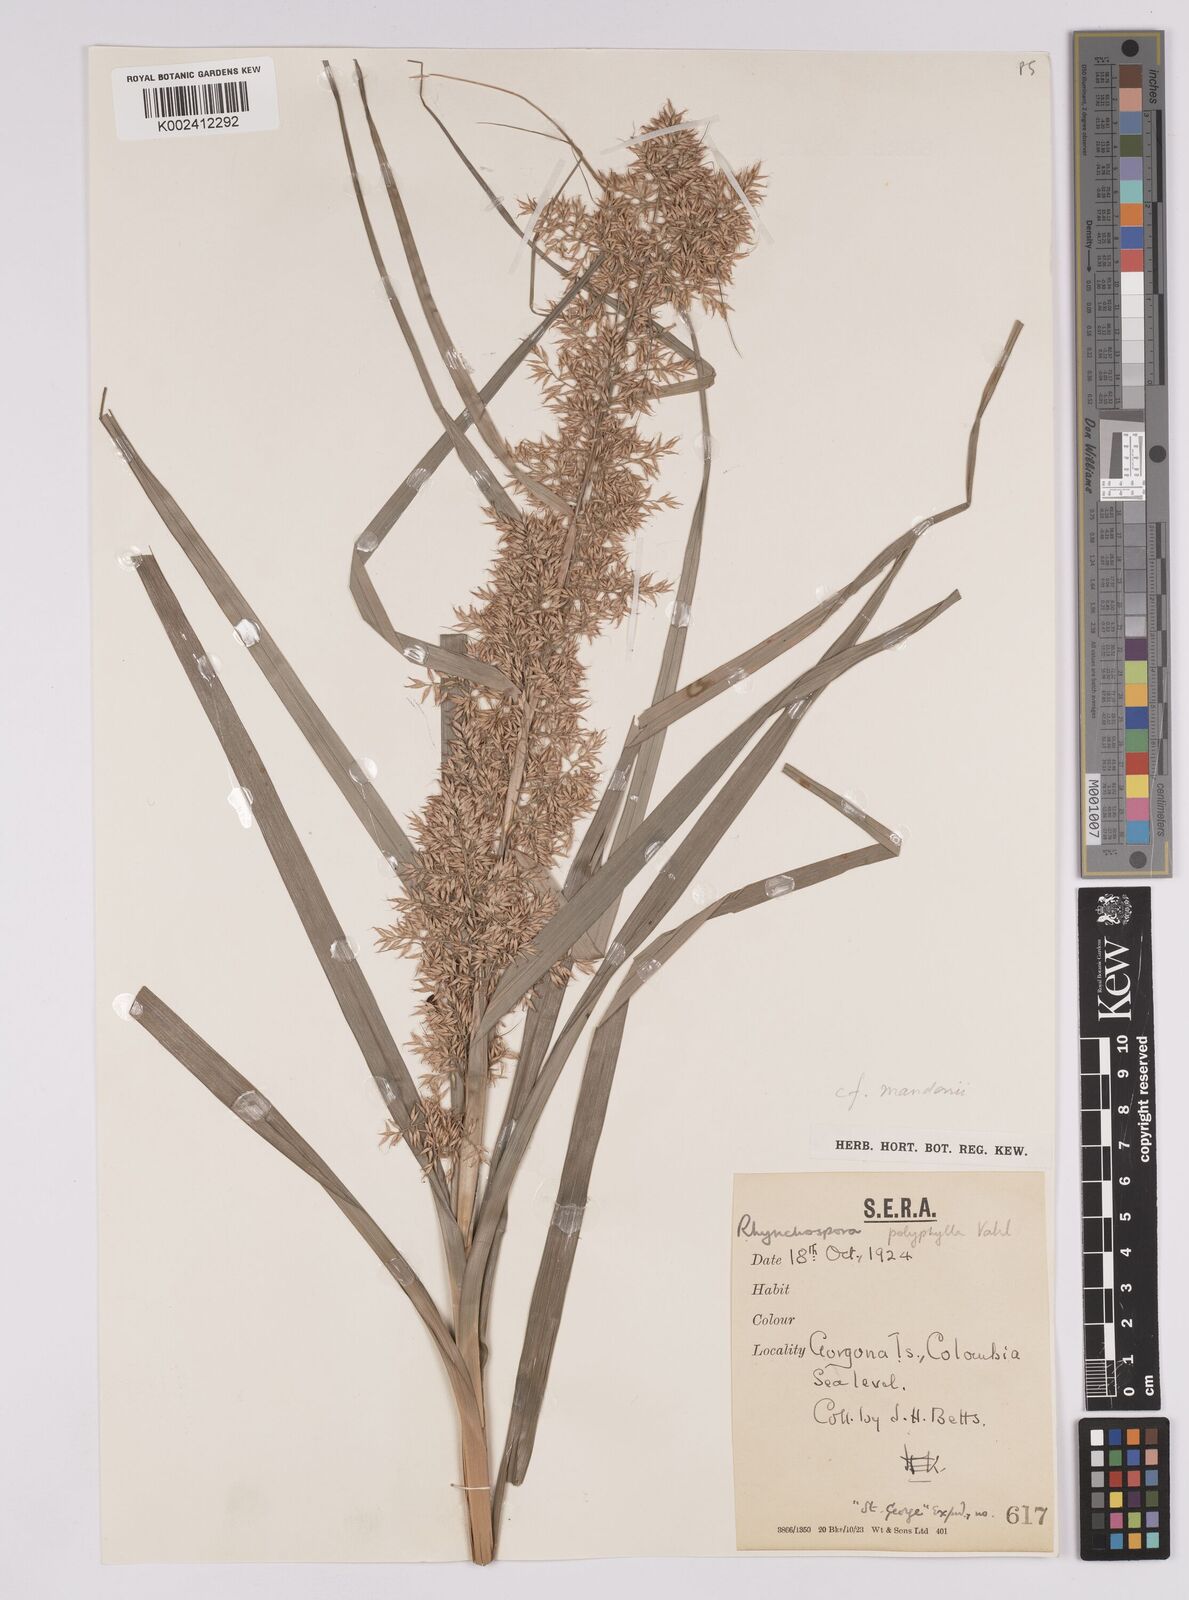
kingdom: Plantae
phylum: Tracheophyta
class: Liliopsida
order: Poales
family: Cyperaceae
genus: Rhynchospora
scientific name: Rhynchospora polyphylla
